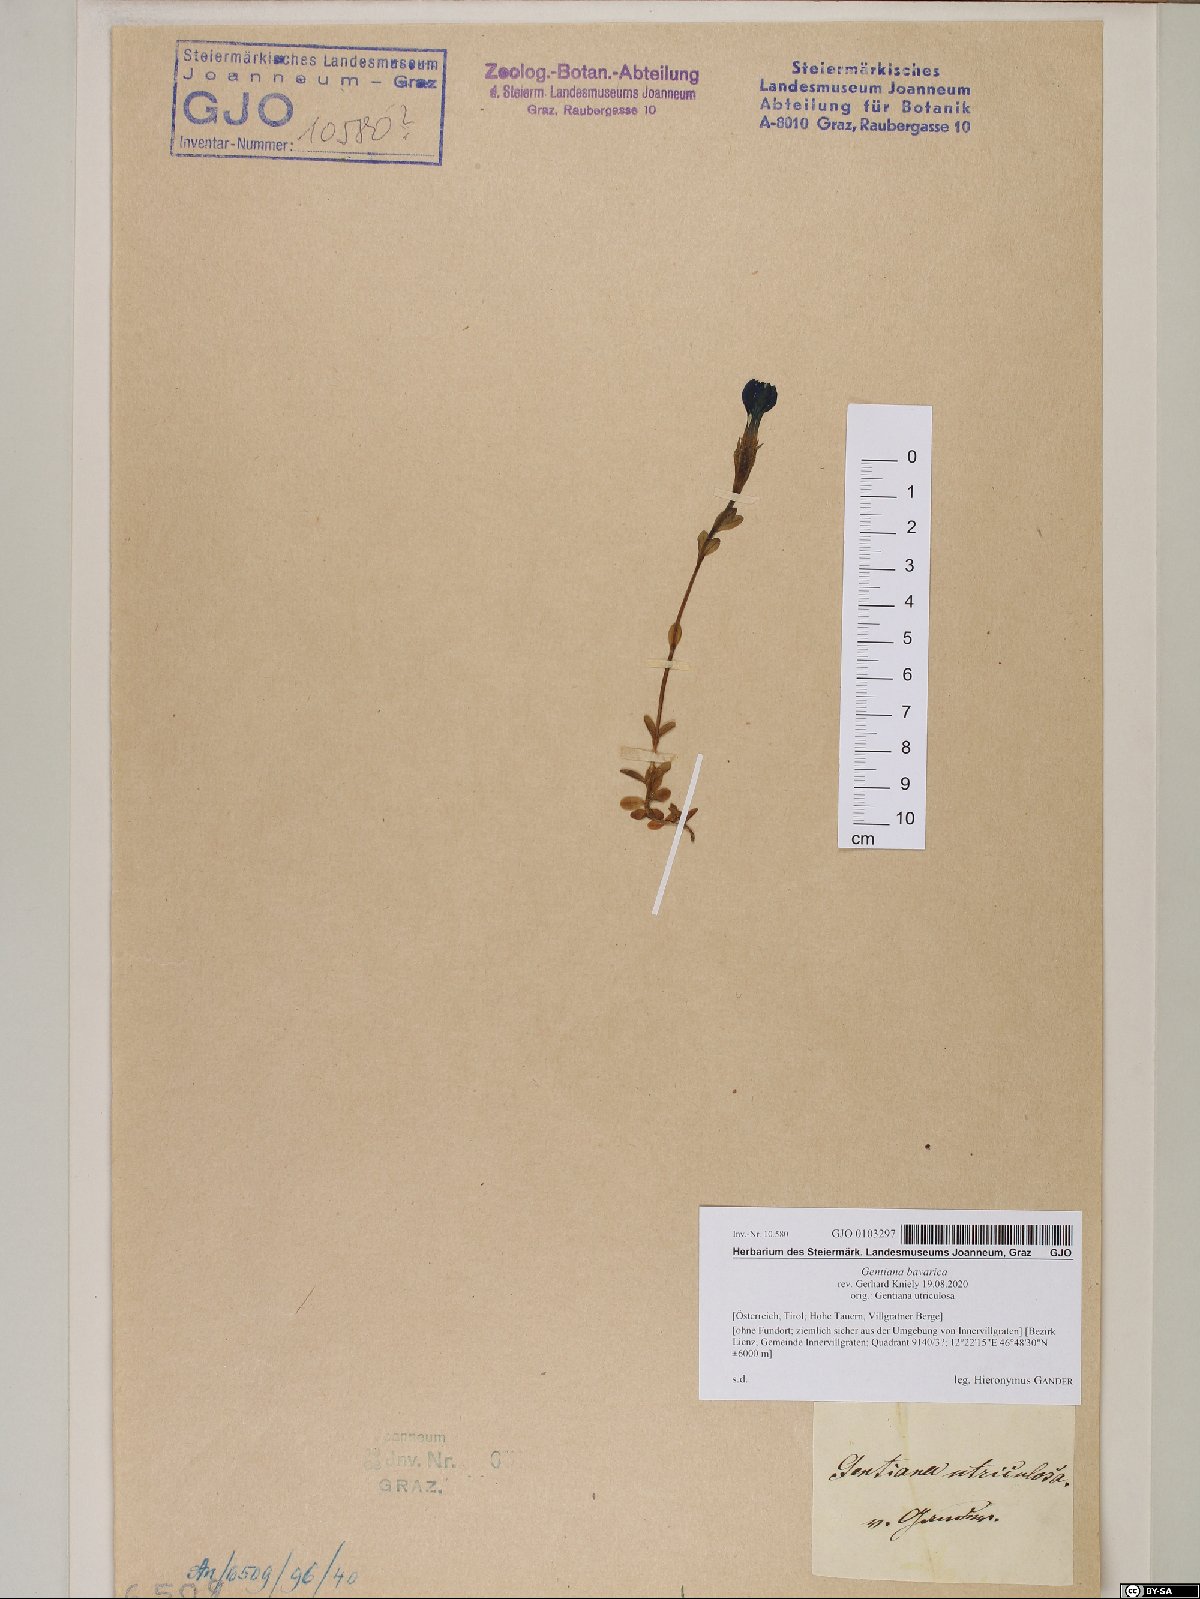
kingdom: Plantae
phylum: Tracheophyta
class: Magnoliopsida
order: Gentianales
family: Gentianaceae
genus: Gentiana
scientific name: Gentiana bavarica
